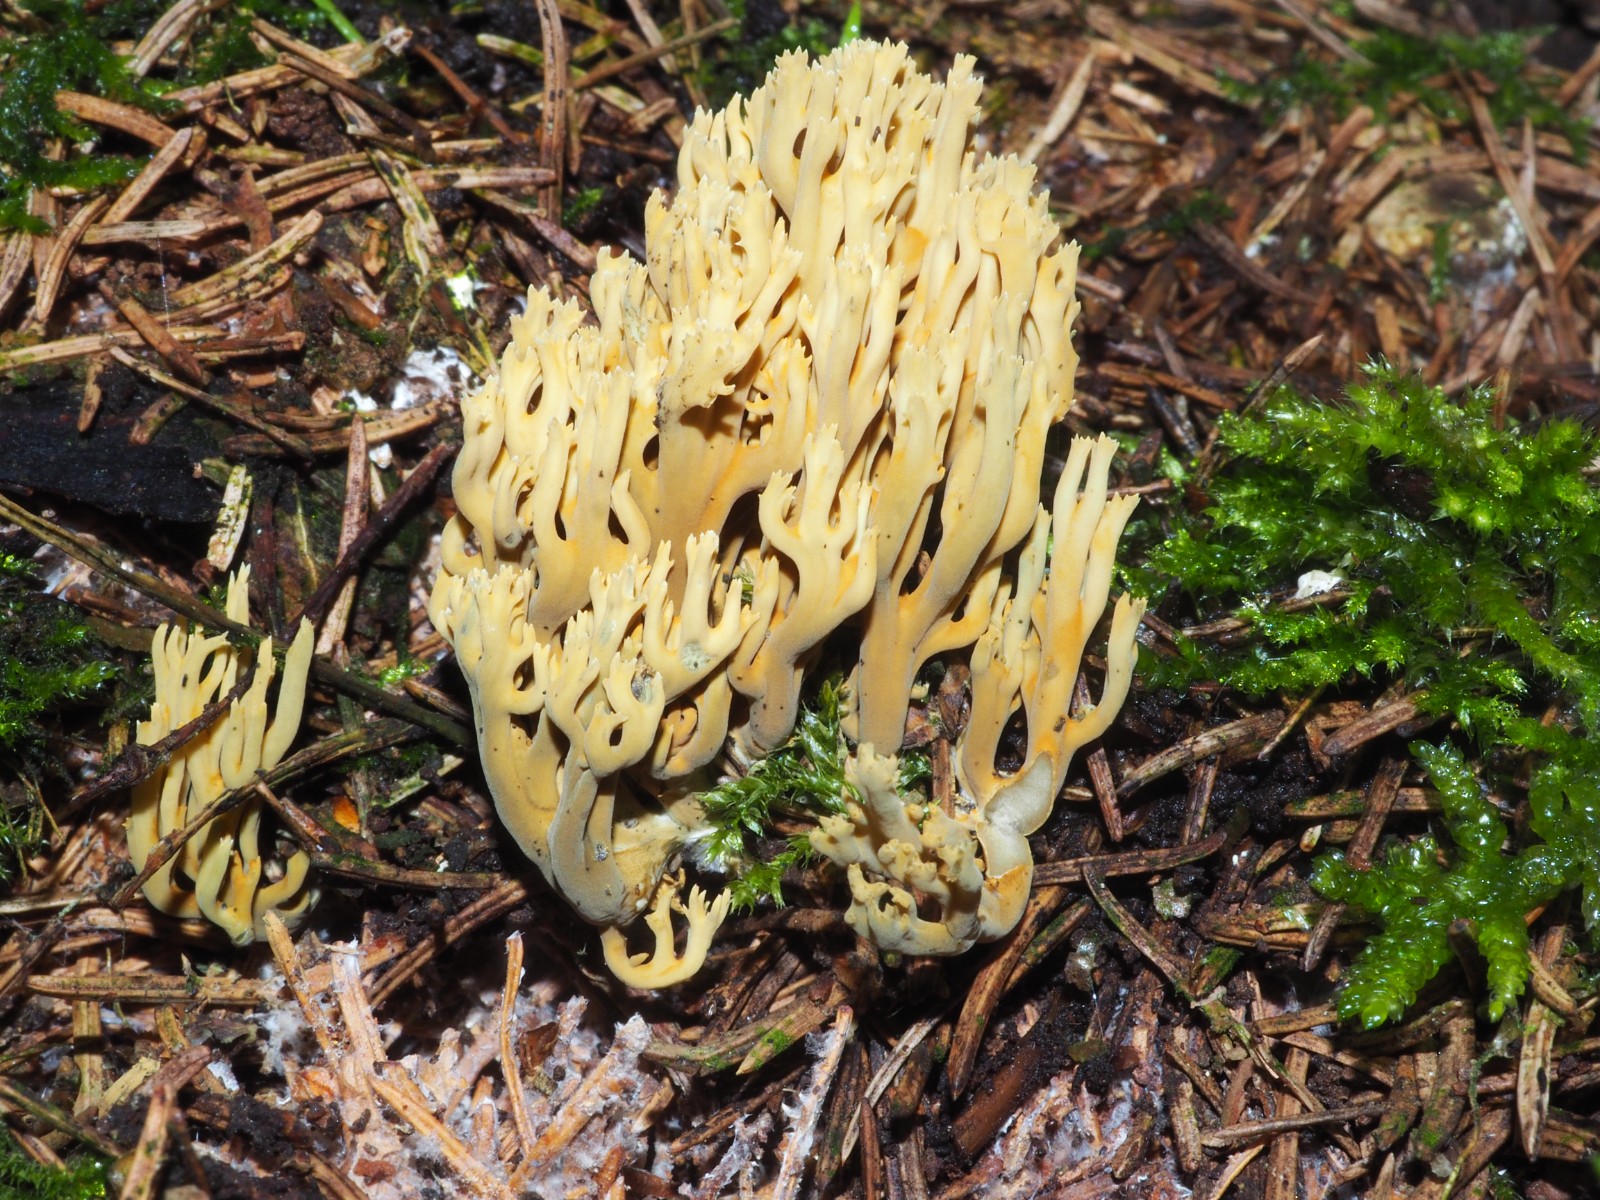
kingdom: Fungi
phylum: Basidiomycota
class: Agaricomycetes
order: Gomphales
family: Gomphaceae
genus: Phaeoclavulina
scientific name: Phaeoclavulina abietina
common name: gulgrøn koralsvamp
